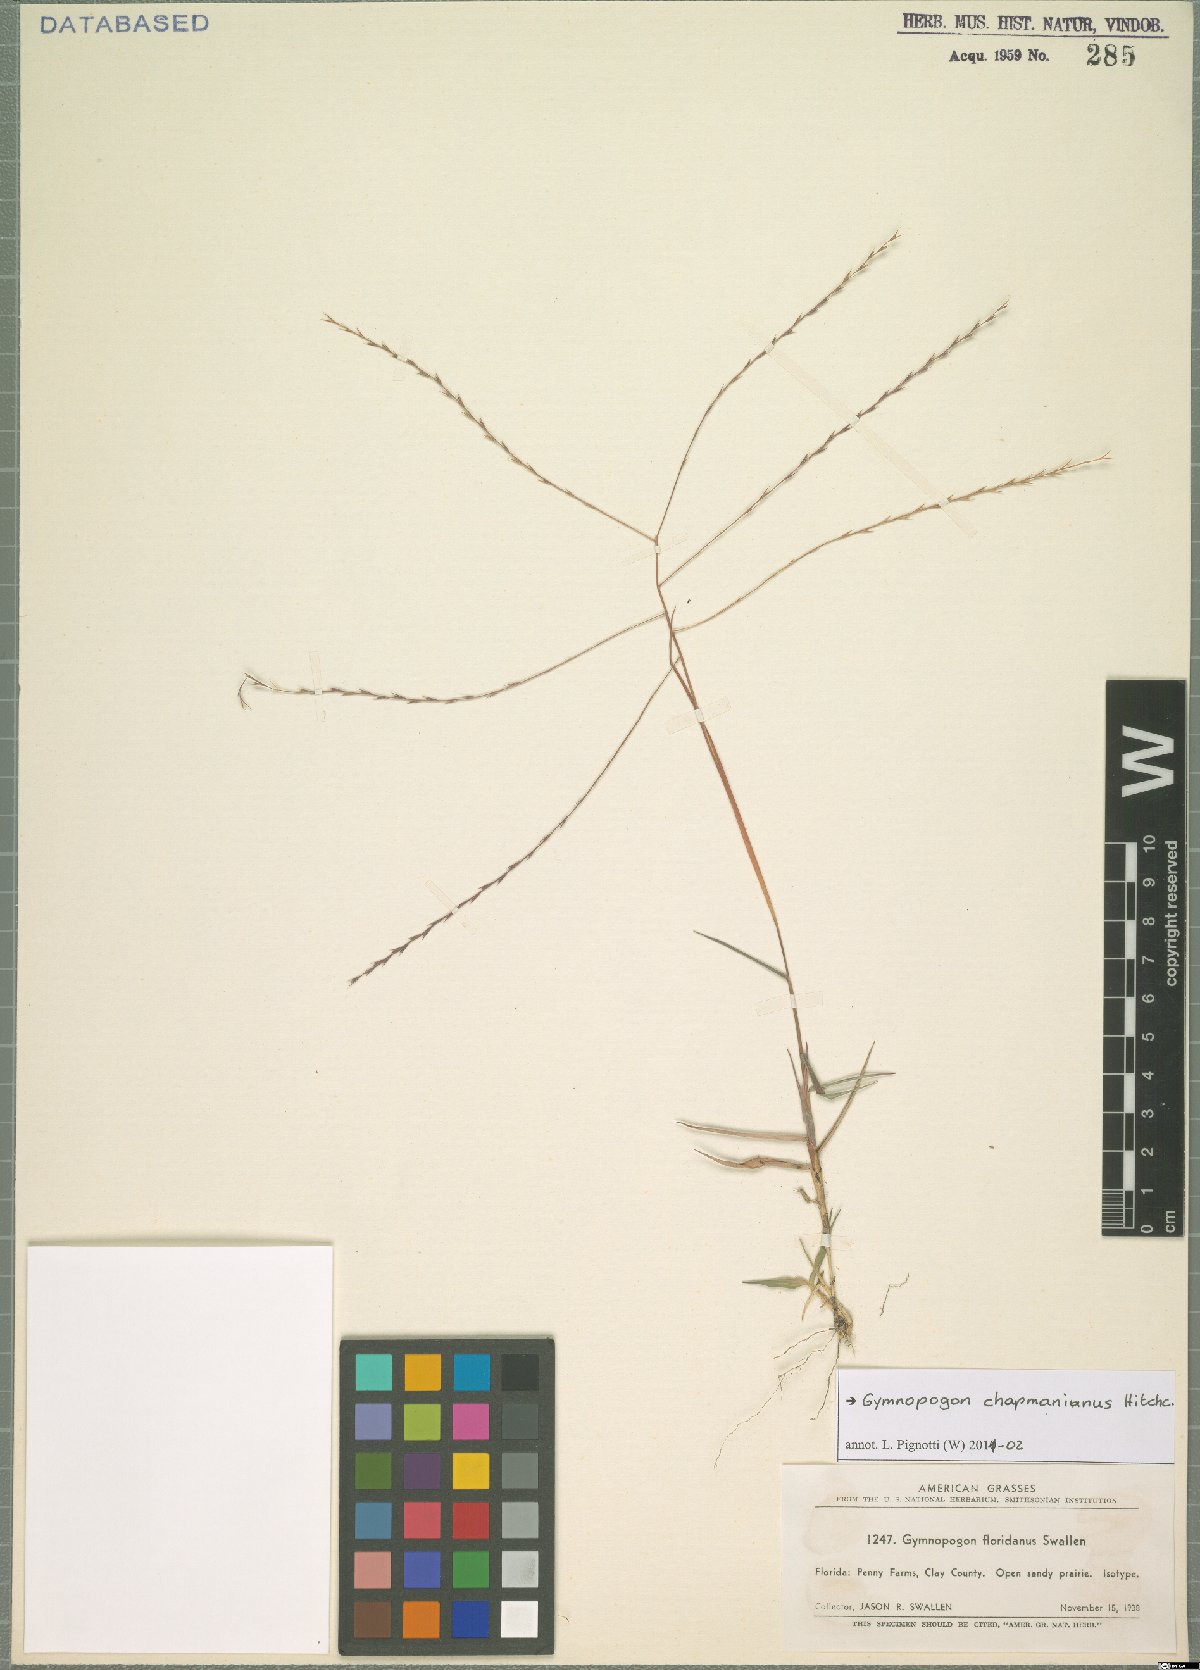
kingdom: Plantae
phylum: Tracheophyta
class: Liliopsida
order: Poales
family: Poaceae
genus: Gymnopogon
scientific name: Gymnopogon chapmanianus
